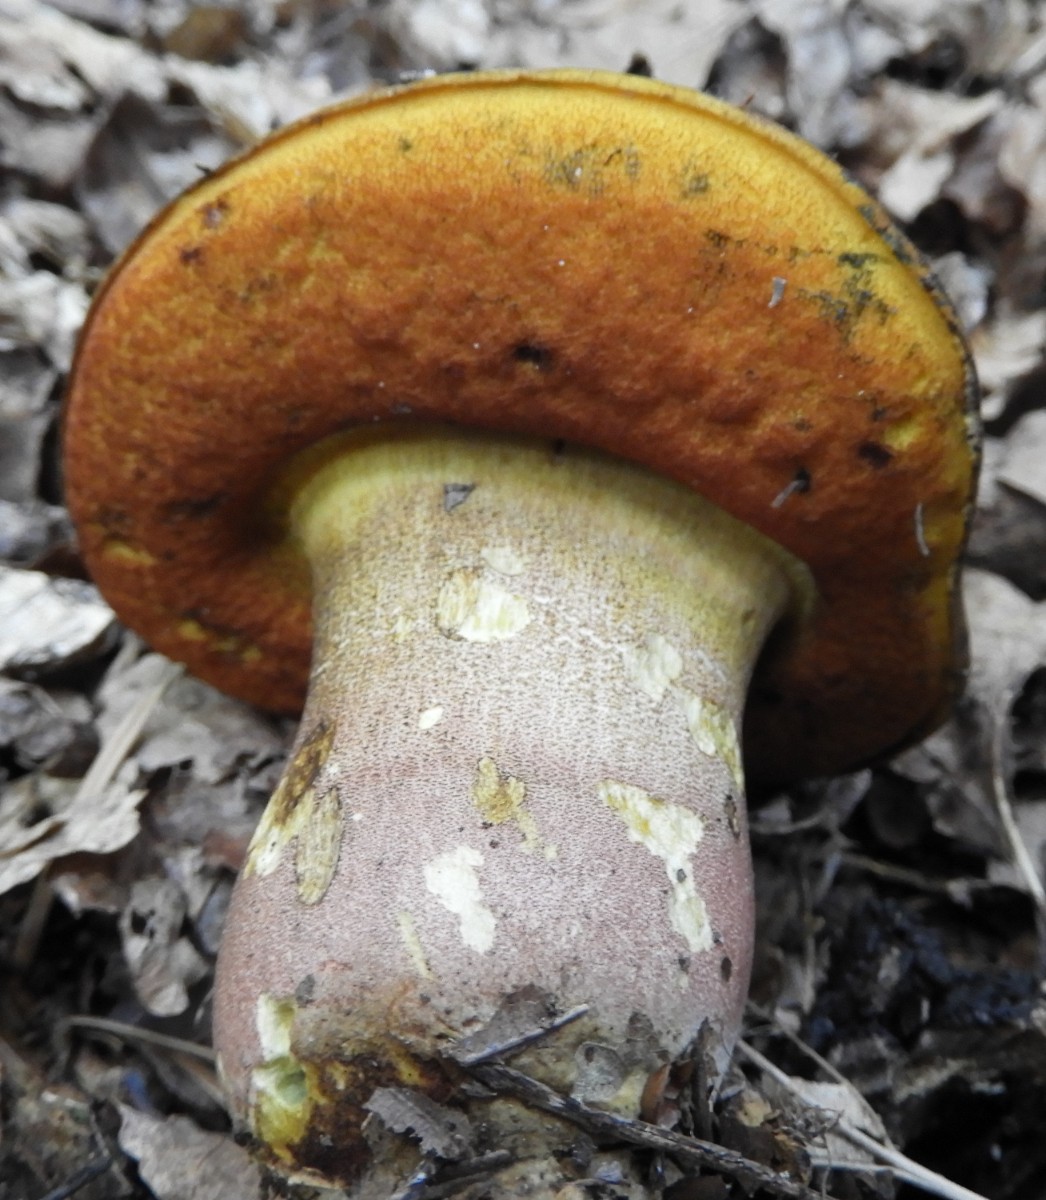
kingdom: Fungi
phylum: Basidiomycota
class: Agaricomycetes
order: Boletales
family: Boletaceae
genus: Neoboletus
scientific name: Neoboletus erythropus
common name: punktstokket indigorørhat
